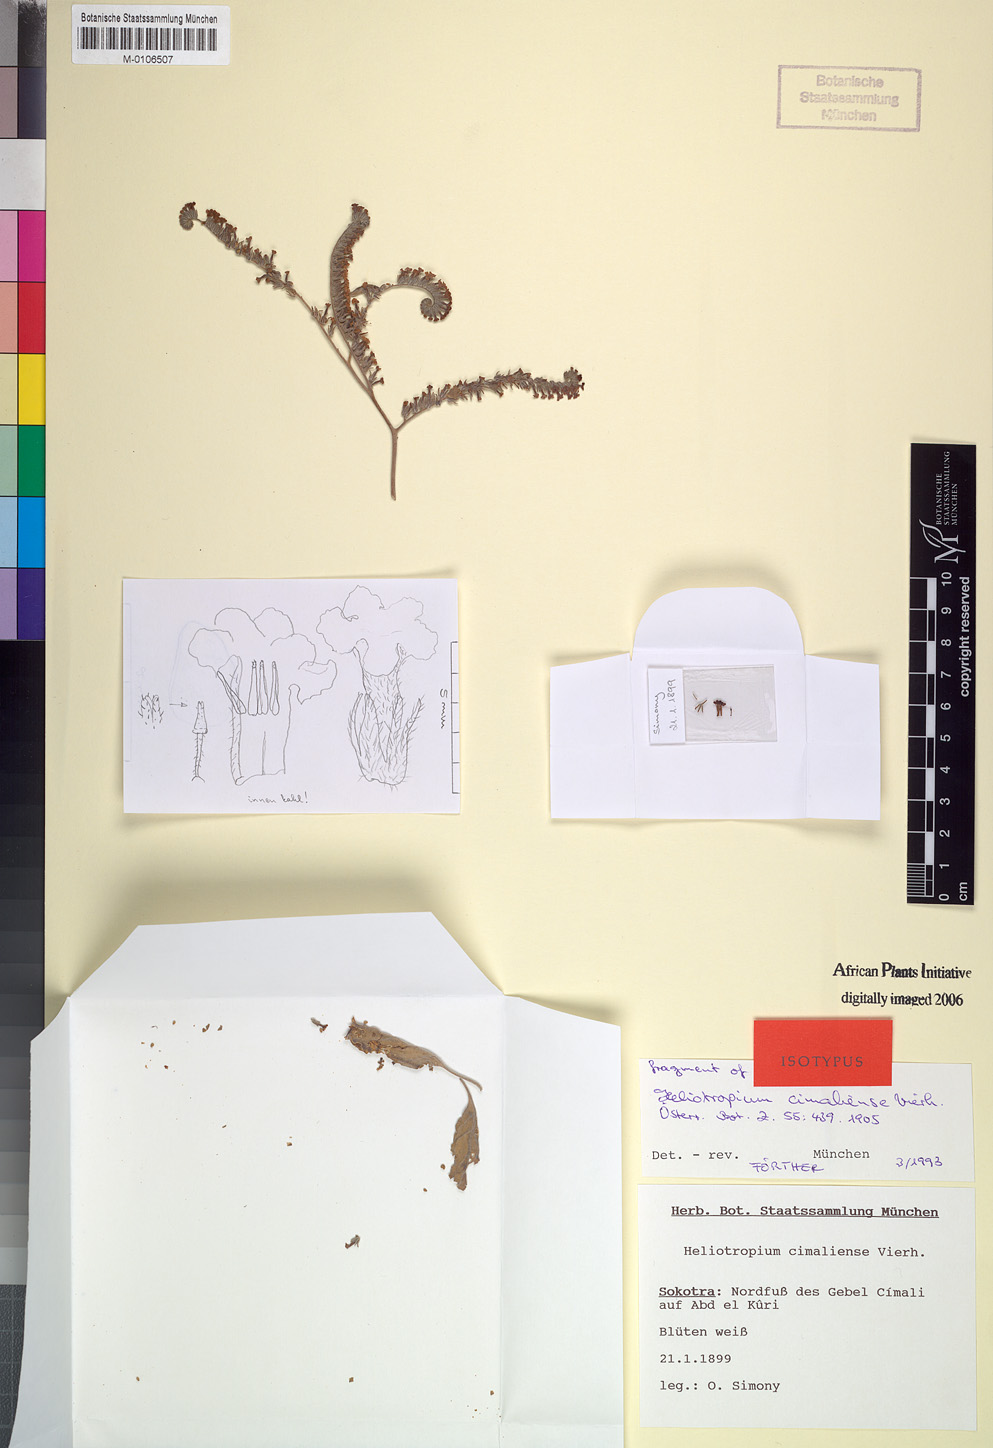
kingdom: Plantae
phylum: Tracheophyta
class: Magnoliopsida
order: Boraginales
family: Heliotropiaceae
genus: Heliotropium
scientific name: Heliotropium aegyptiacum
